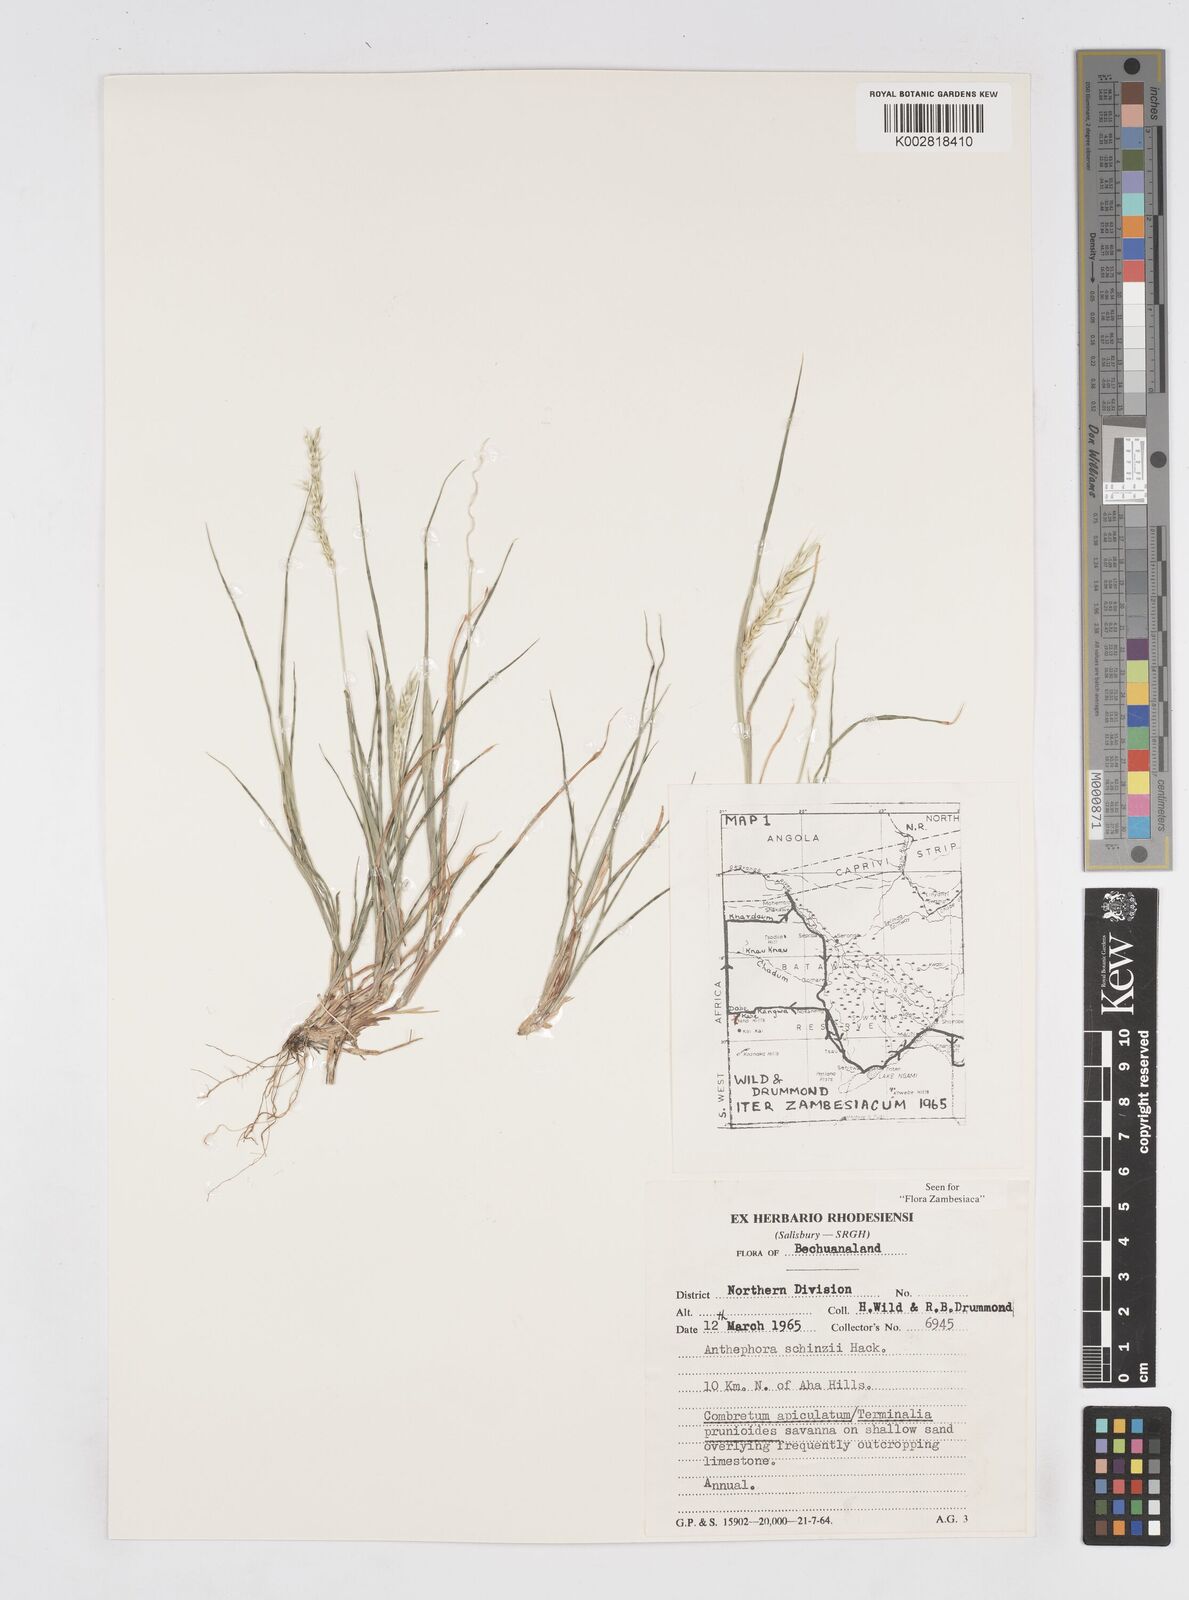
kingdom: Plantae
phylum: Tracheophyta
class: Liliopsida
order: Poales
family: Poaceae
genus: Anthephora
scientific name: Anthephora schinzii
